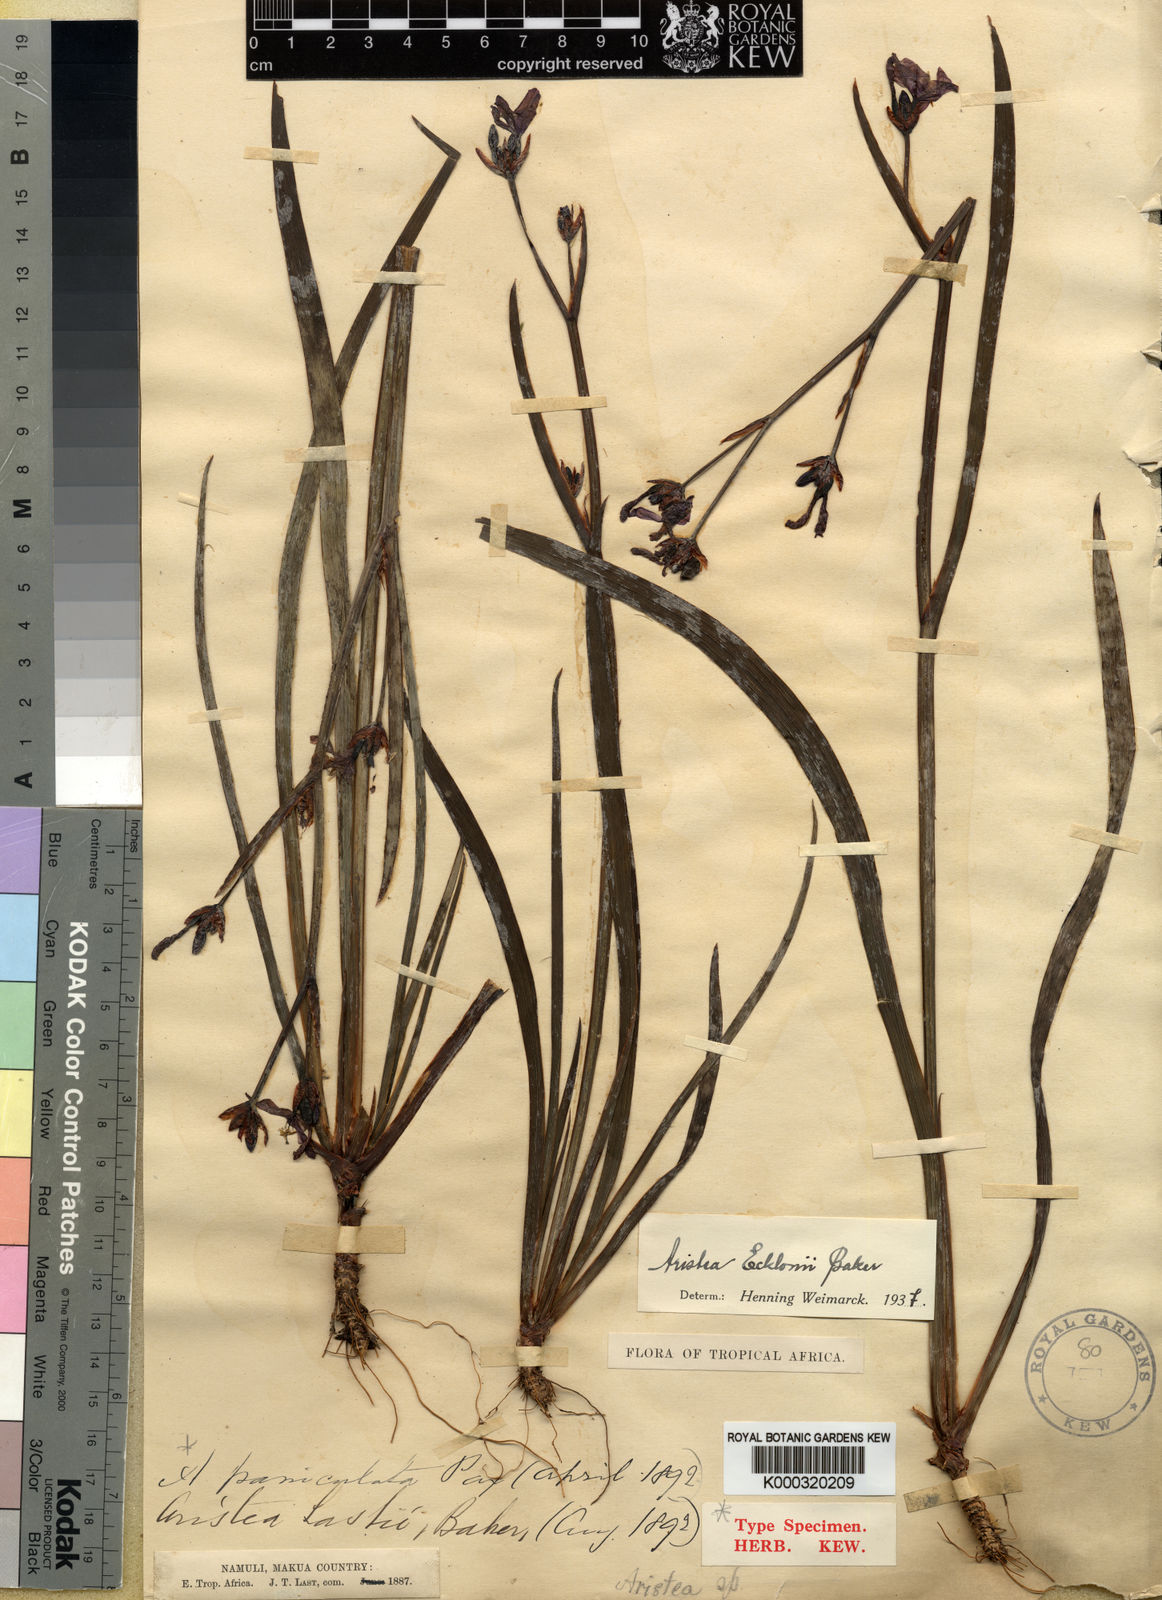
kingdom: Plantae
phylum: Tracheophyta
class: Liliopsida
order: Asparagales
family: Iridaceae
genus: Aristea
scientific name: Aristea ecklonii
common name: Blue corn-lily
